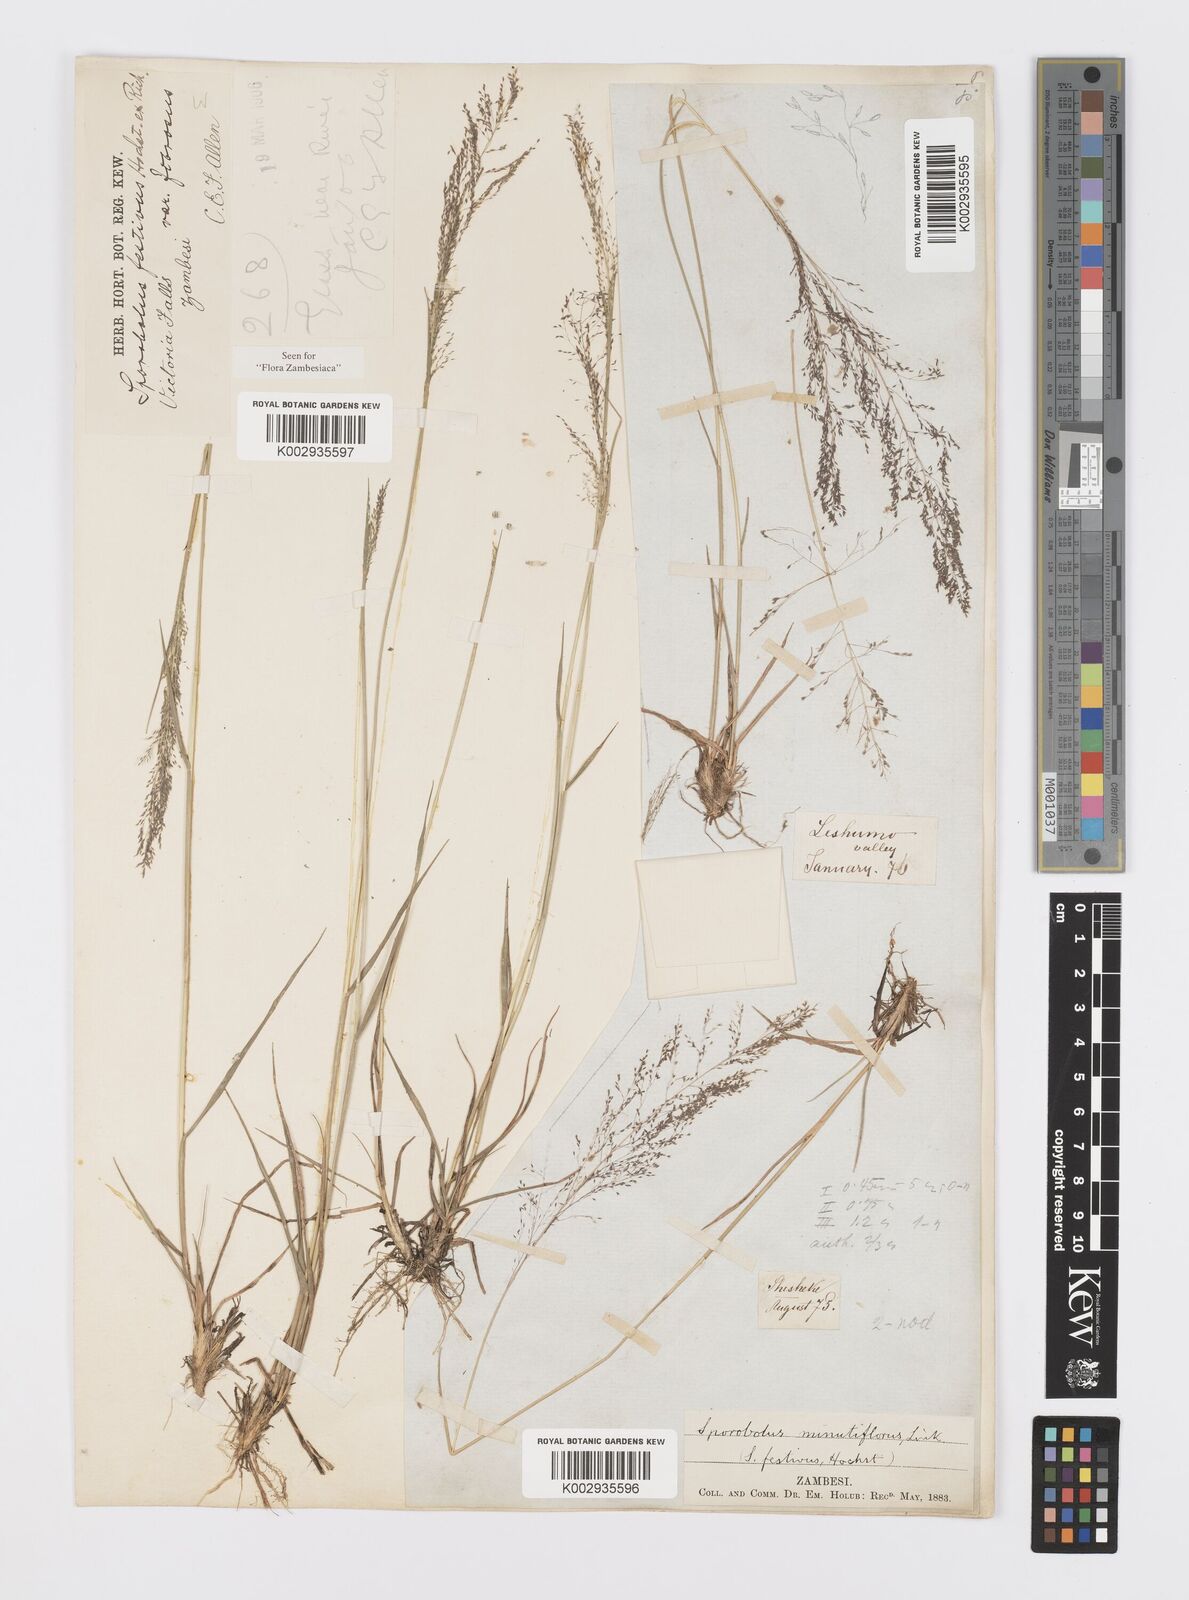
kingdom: Plantae
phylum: Tracheophyta
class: Liliopsida
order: Poales
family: Poaceae
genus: Sporobolus
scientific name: Sporobolus festivus
